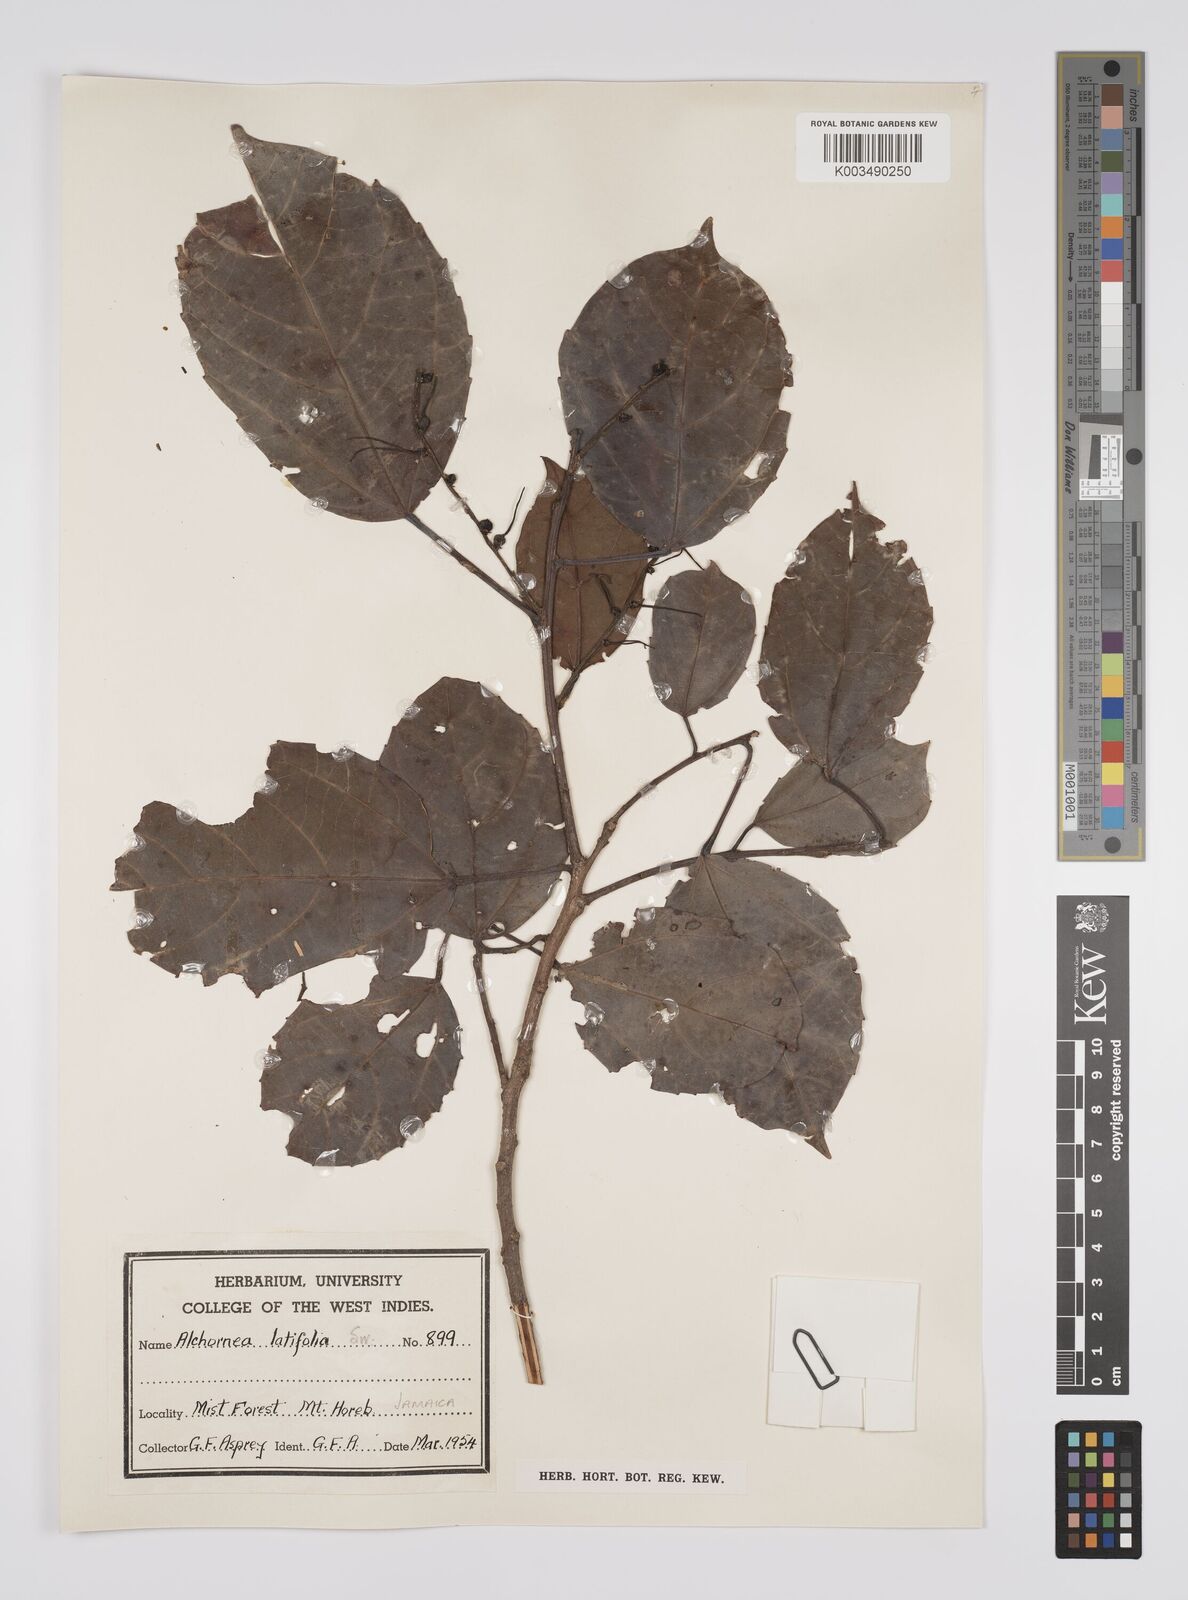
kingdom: Plantae
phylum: Tracheophyta
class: Magnoliopsida
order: Malpighiales
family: Euphorbiaceae
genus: Alchornea
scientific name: Alchornea latifolia
